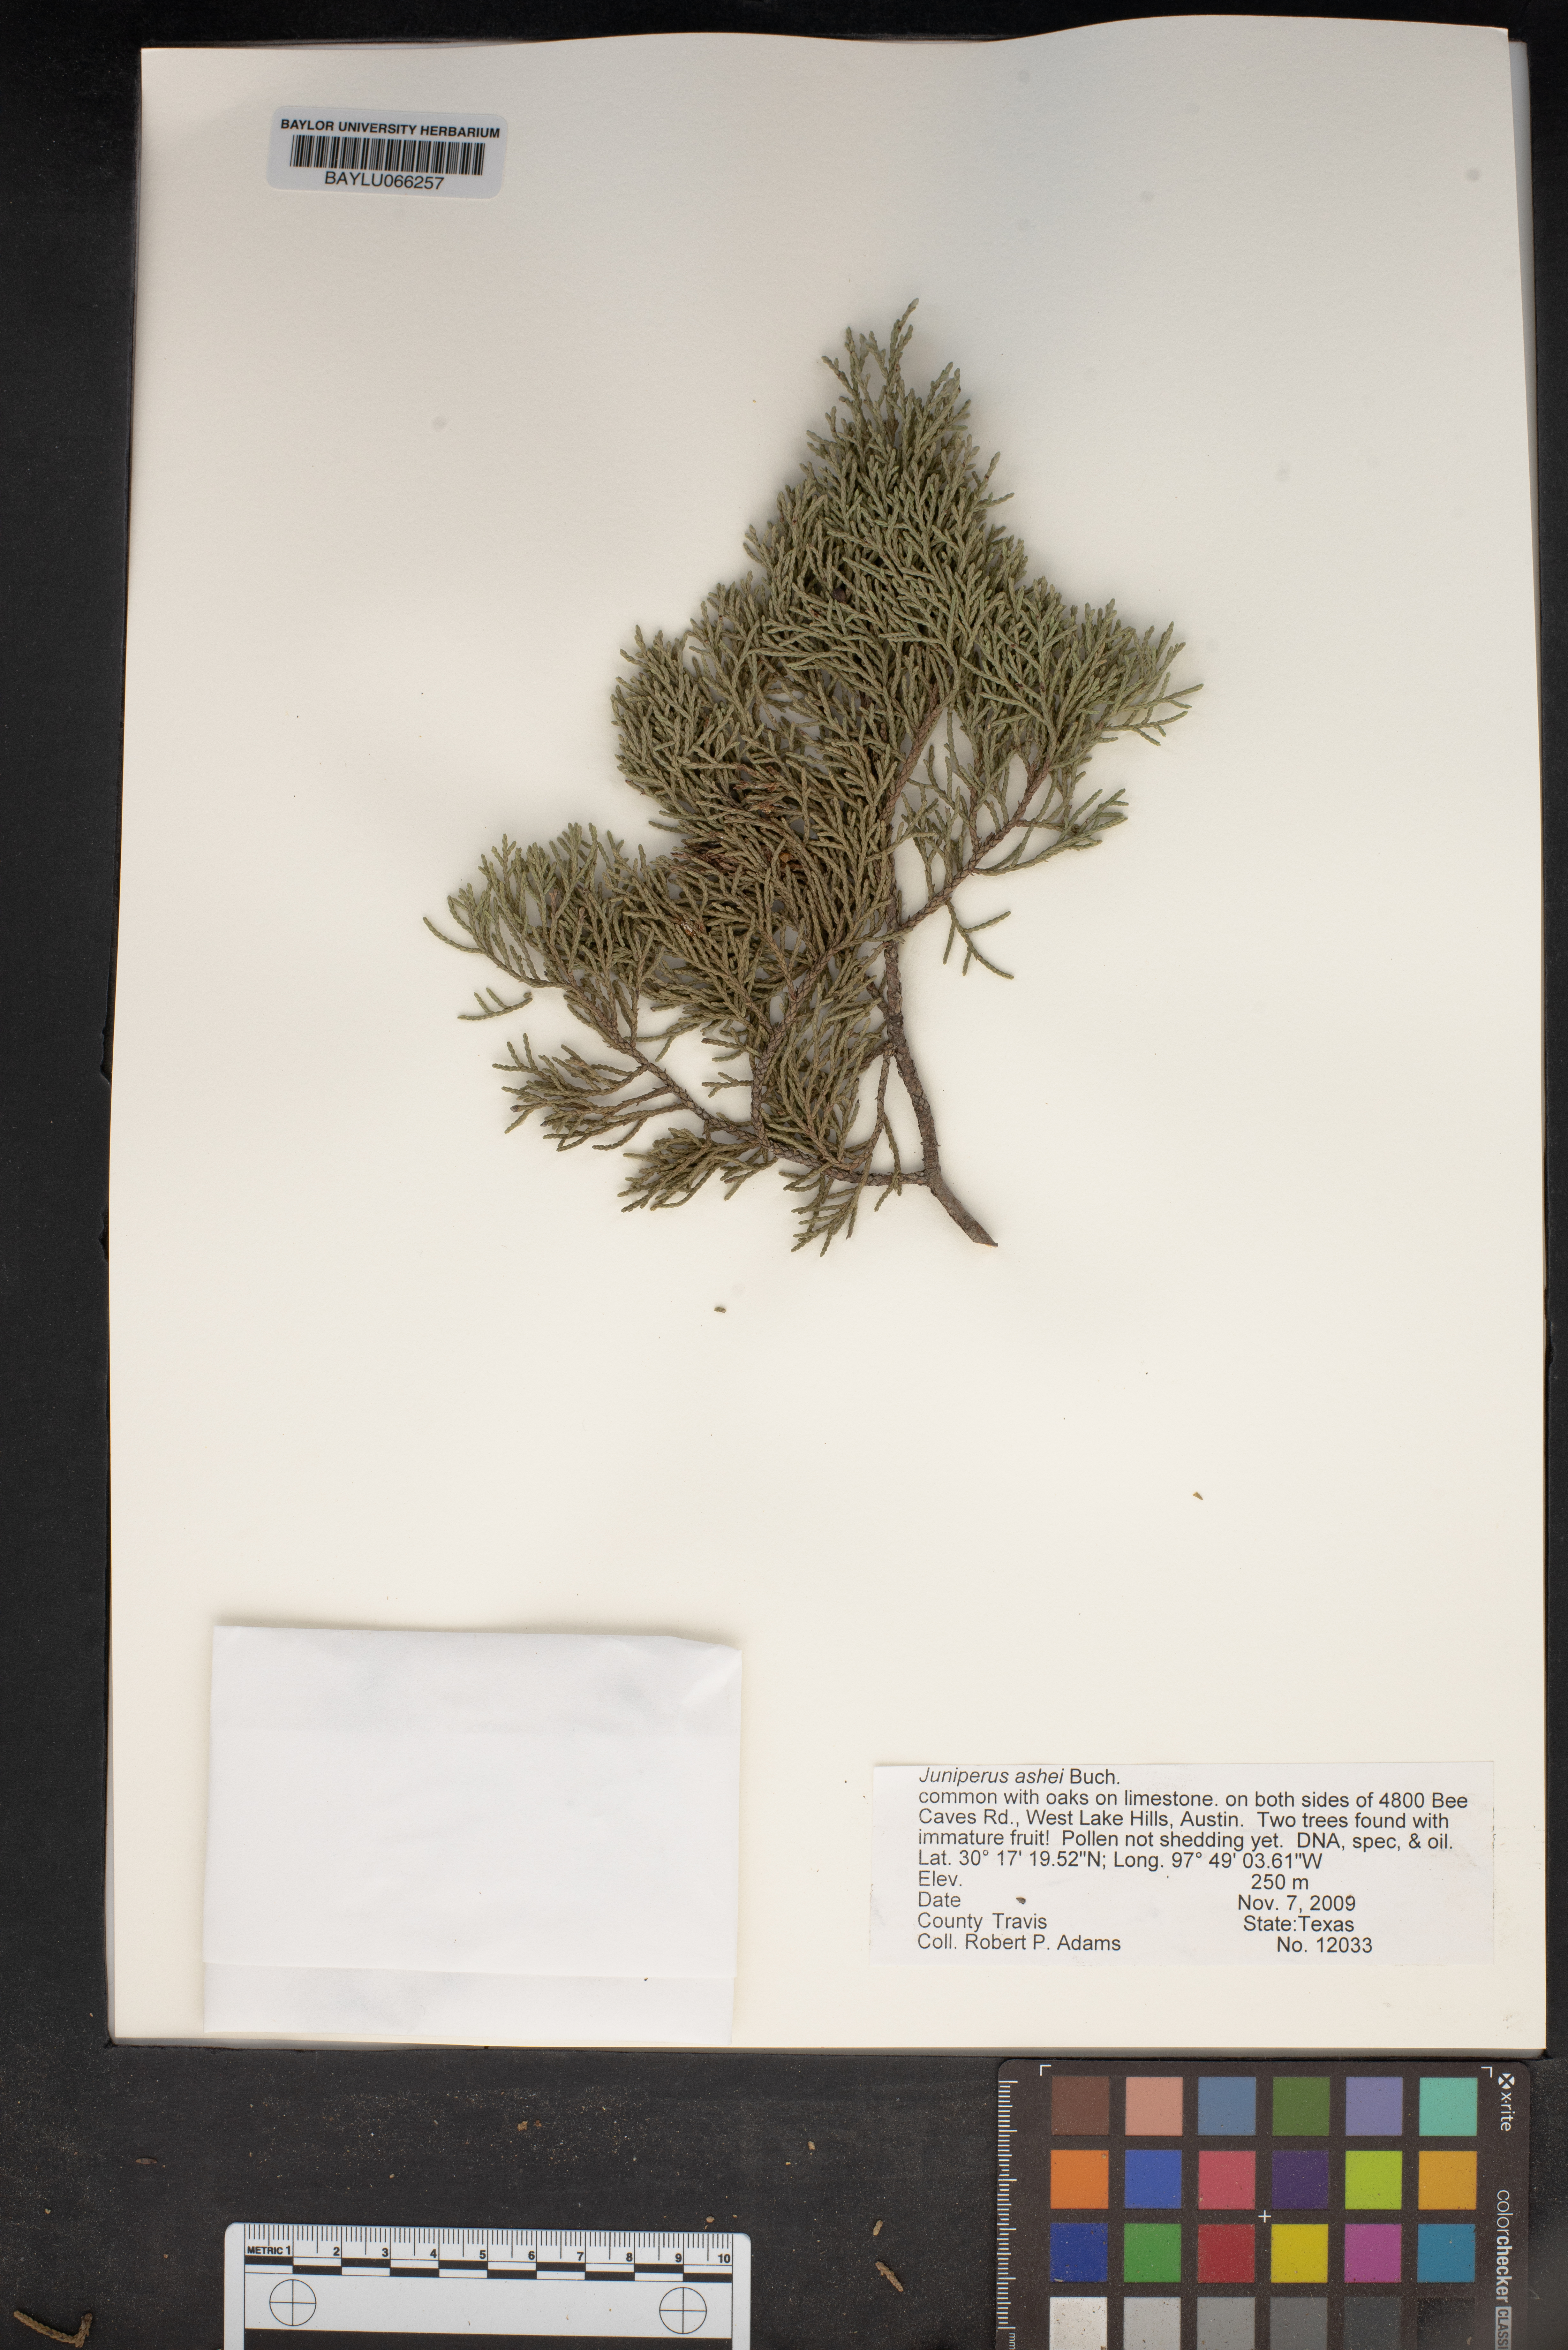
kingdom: Plantae
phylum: Tracheophyta
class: Pinopsida
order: Pinales
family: Cupressaceae
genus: Juniperus
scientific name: Juniperus ashei
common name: Mexican juniper
